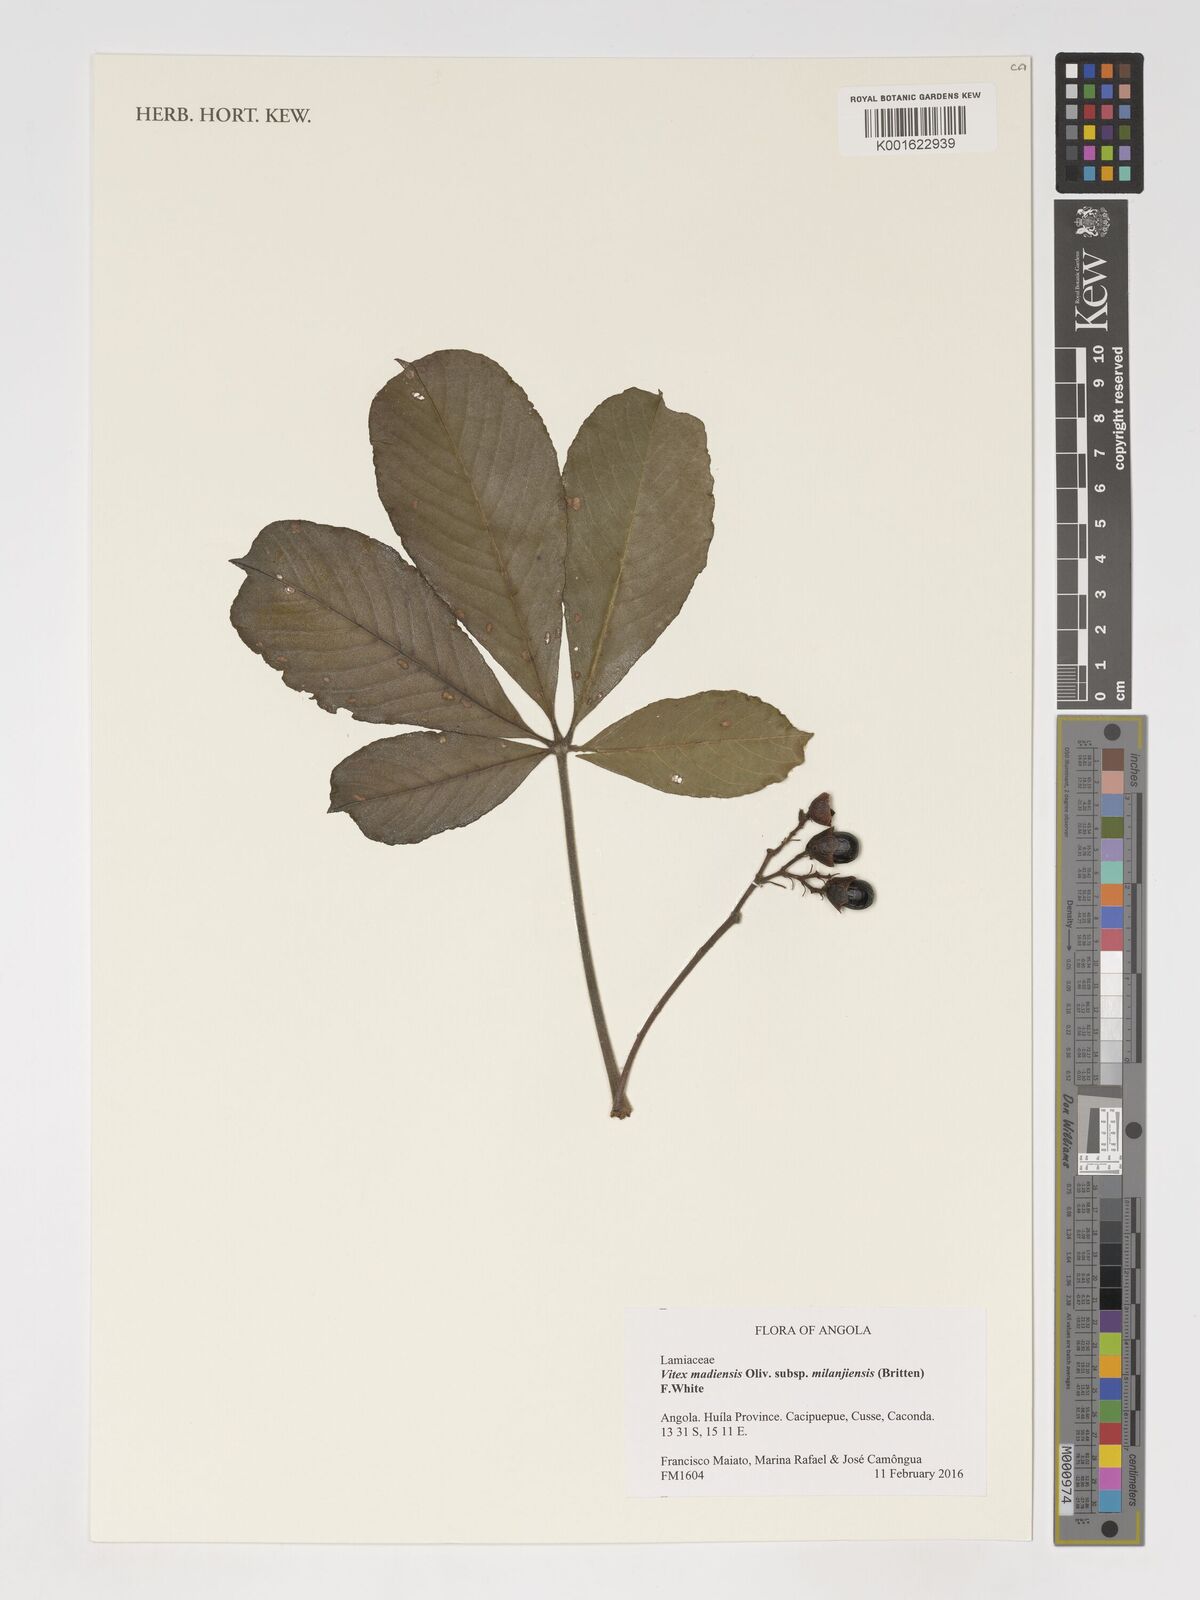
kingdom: Plantae
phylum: Tracheophyta
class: Magnoliopsida
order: Lamiales
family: Lamiaceae
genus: Vitex
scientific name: Vitex madiensis
